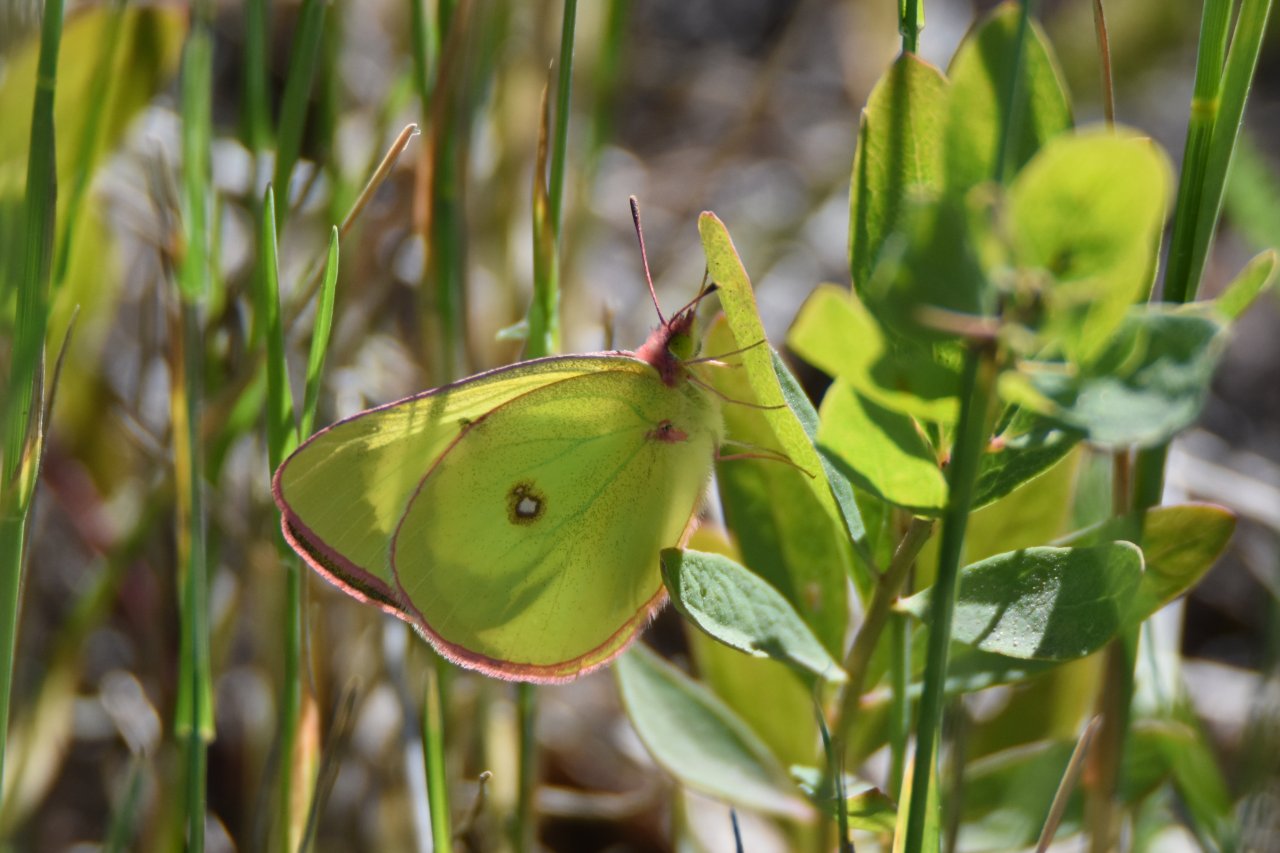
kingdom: Animalia
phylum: Arthropoda
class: Insecta
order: Lepidoptera
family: Pieridae
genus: Colias
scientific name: Colias interior
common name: Pink-edged Sulphur
